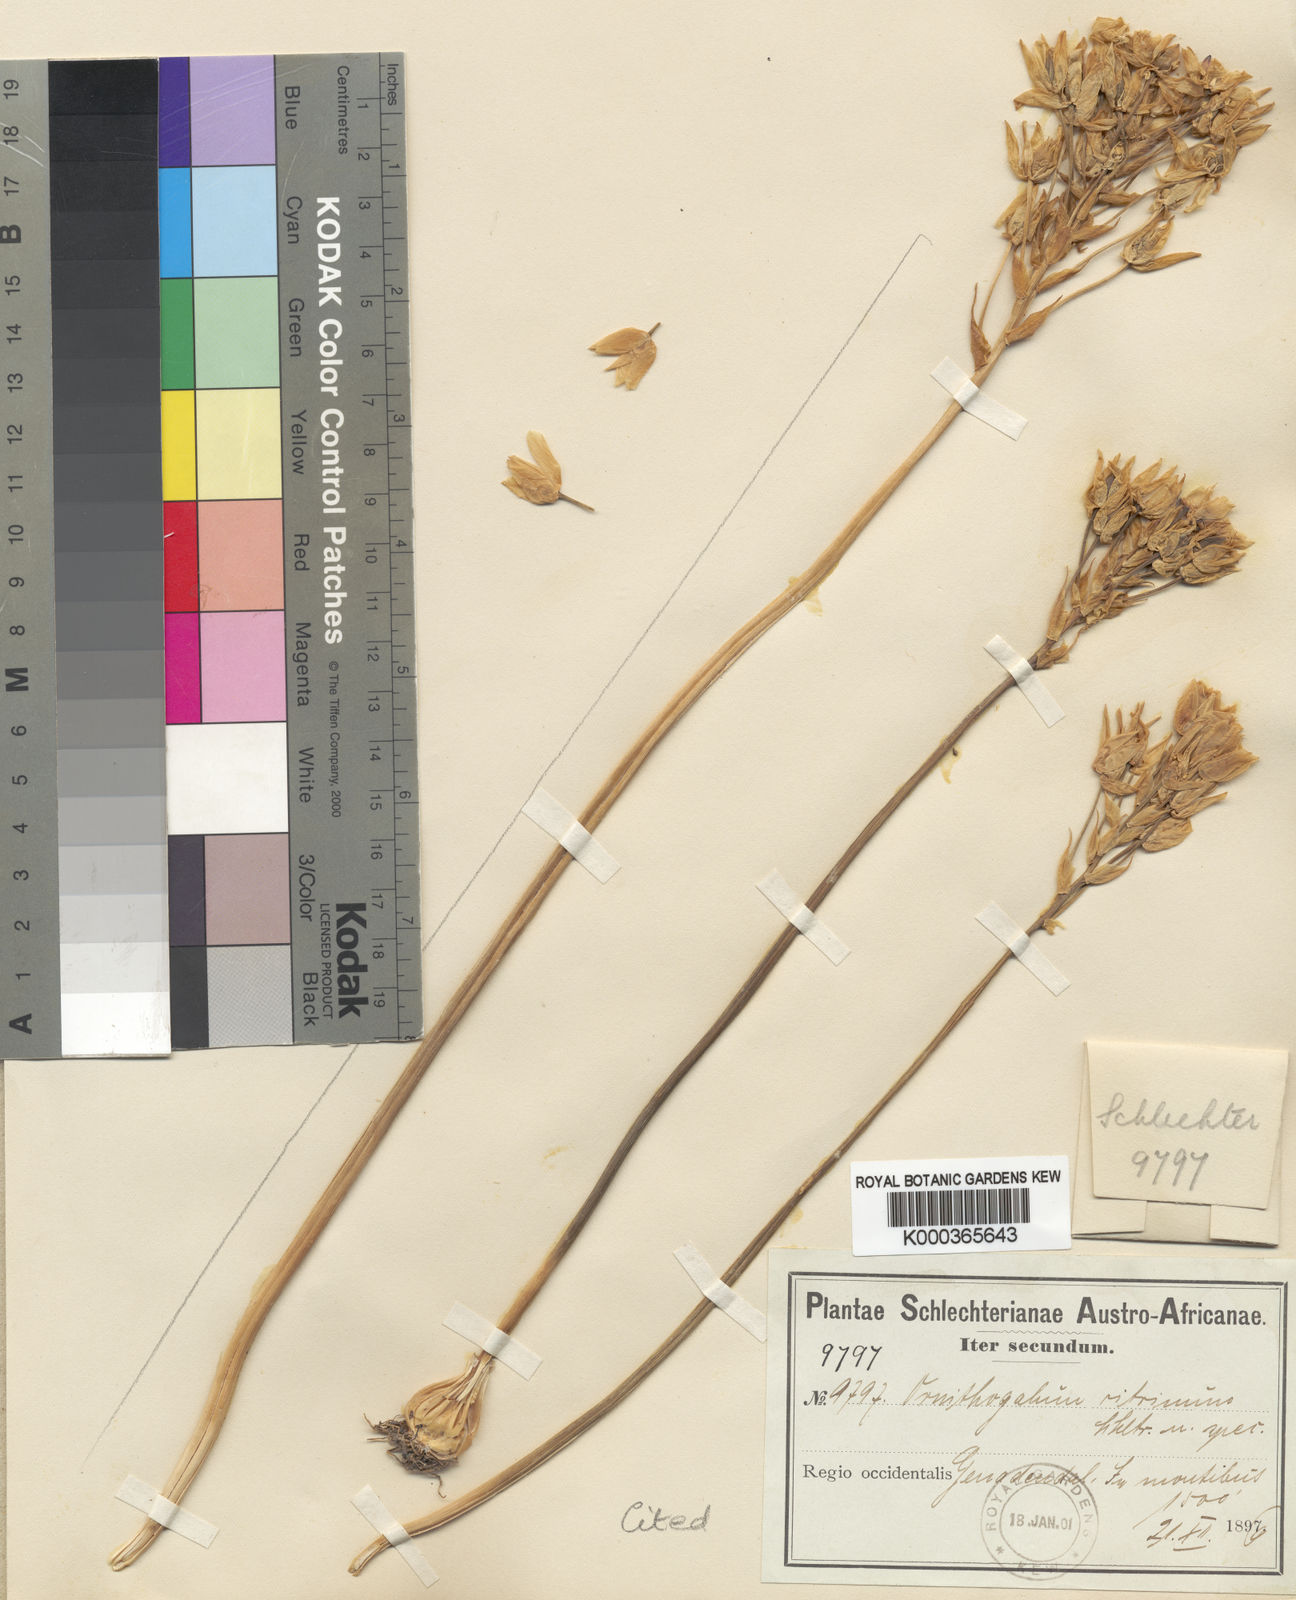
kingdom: Plantae
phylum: Tracheophyta
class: Liliopsida
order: Asparagales
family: Asparagaceae
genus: Ornithogalum
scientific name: Ornithogalum dubium
